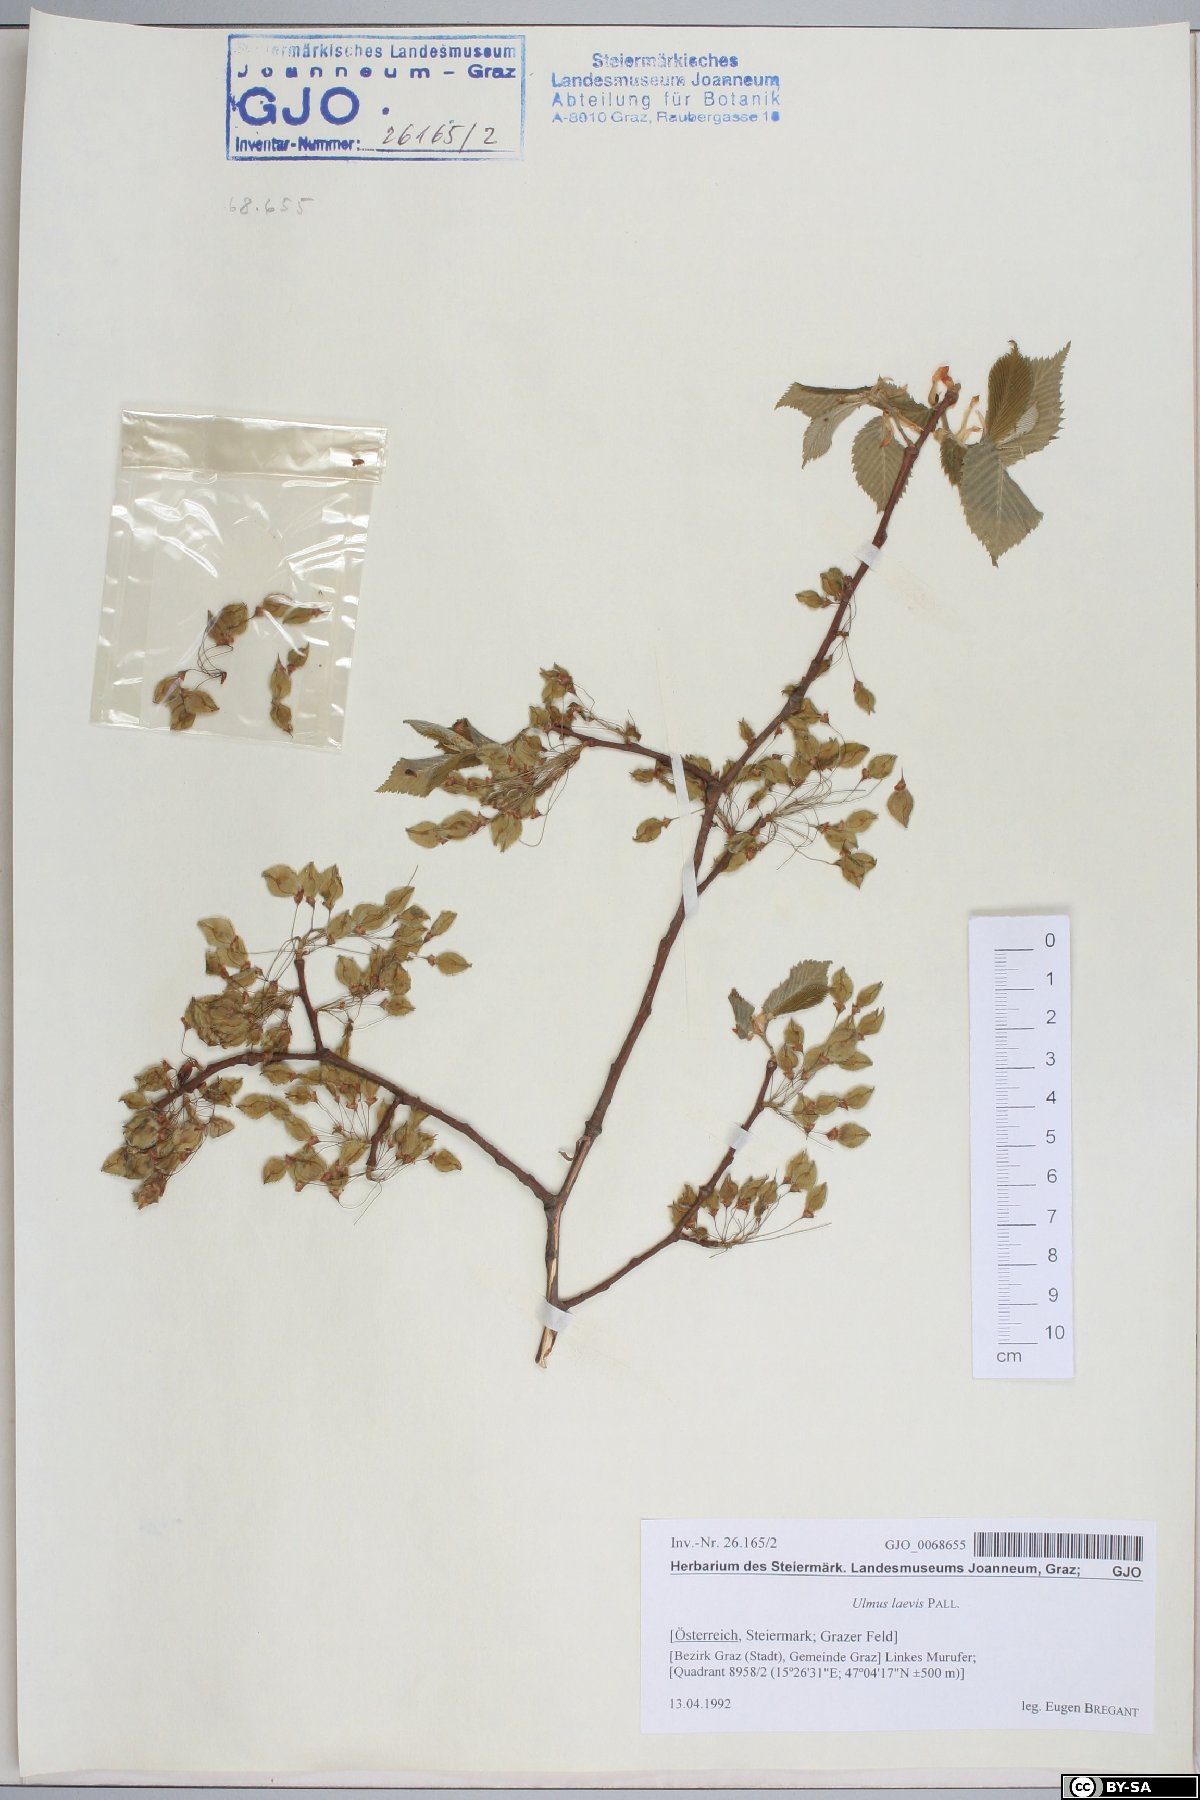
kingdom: Plantae
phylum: Tracheophyta
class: Magnoliopsida
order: Rosales
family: Ulmaceae
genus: Ulmus
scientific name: Ulmus laevis
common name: European white-elm
